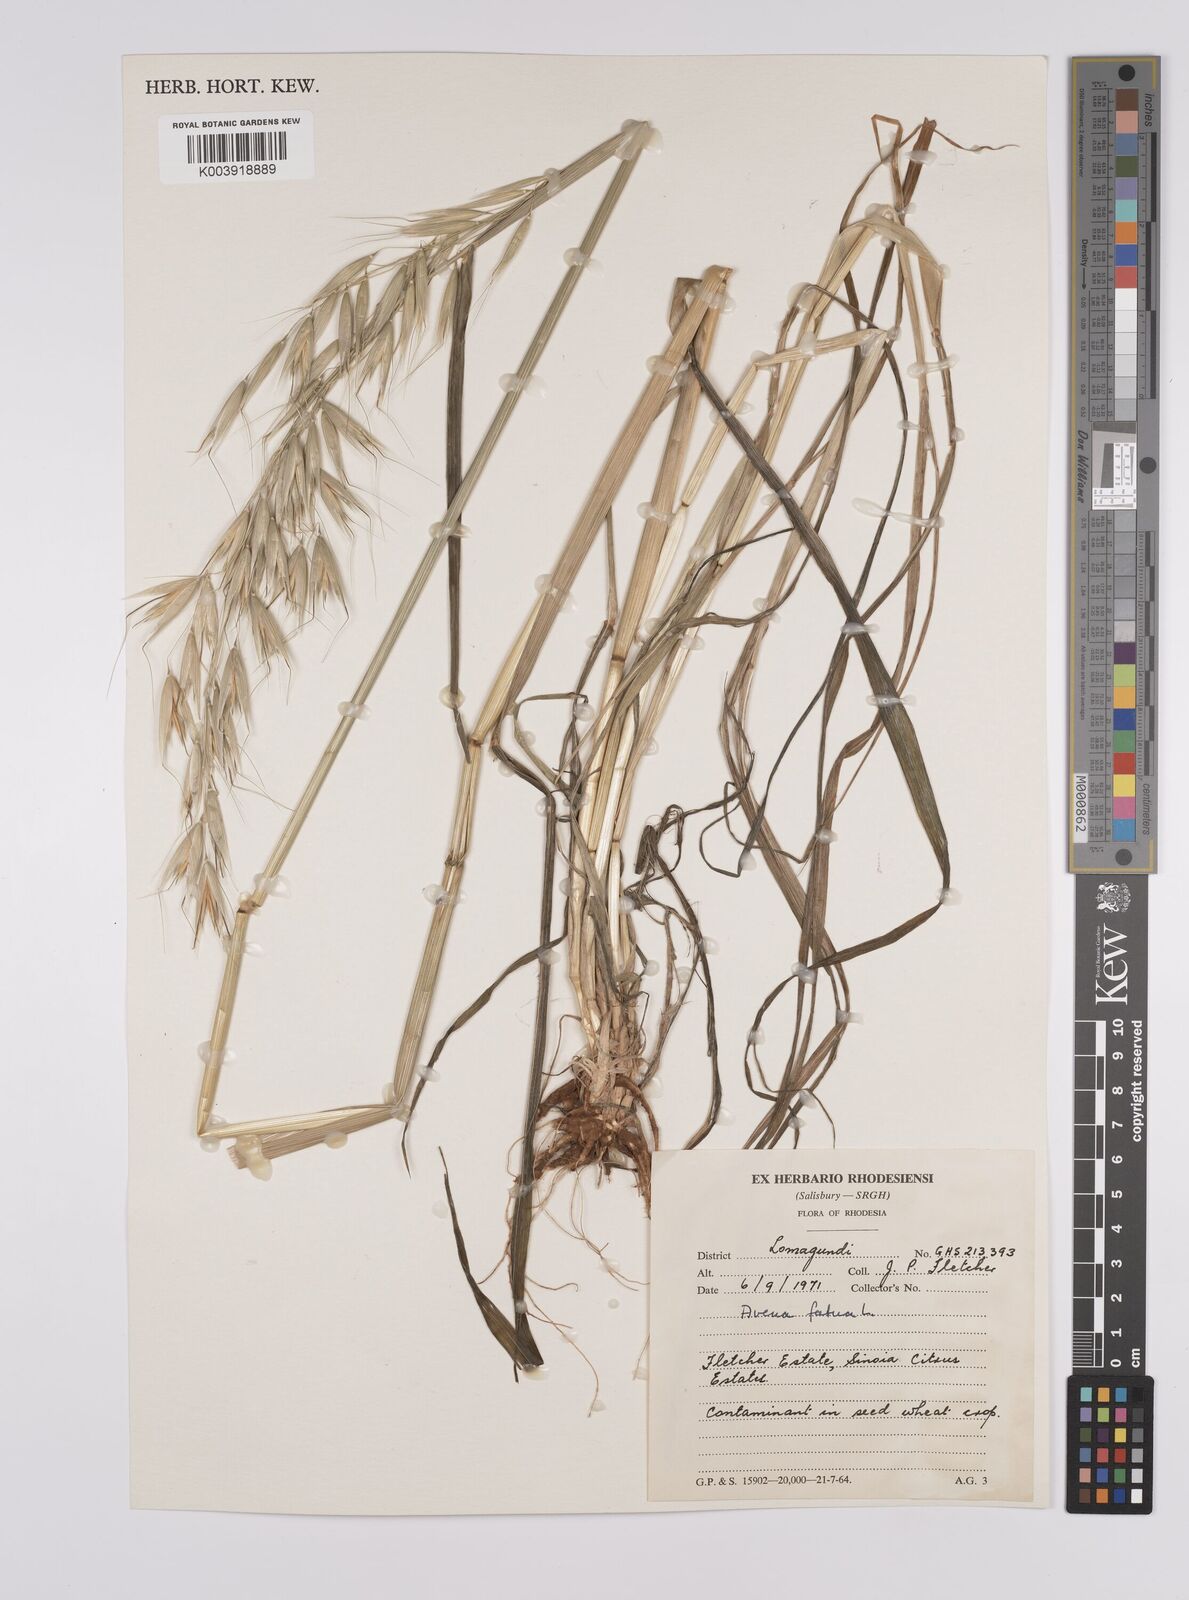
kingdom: Plantae
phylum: Tracheophyta
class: Liliopsida
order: Poales
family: Poaceae
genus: Avena
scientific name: Avena fatua
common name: Wild oat
